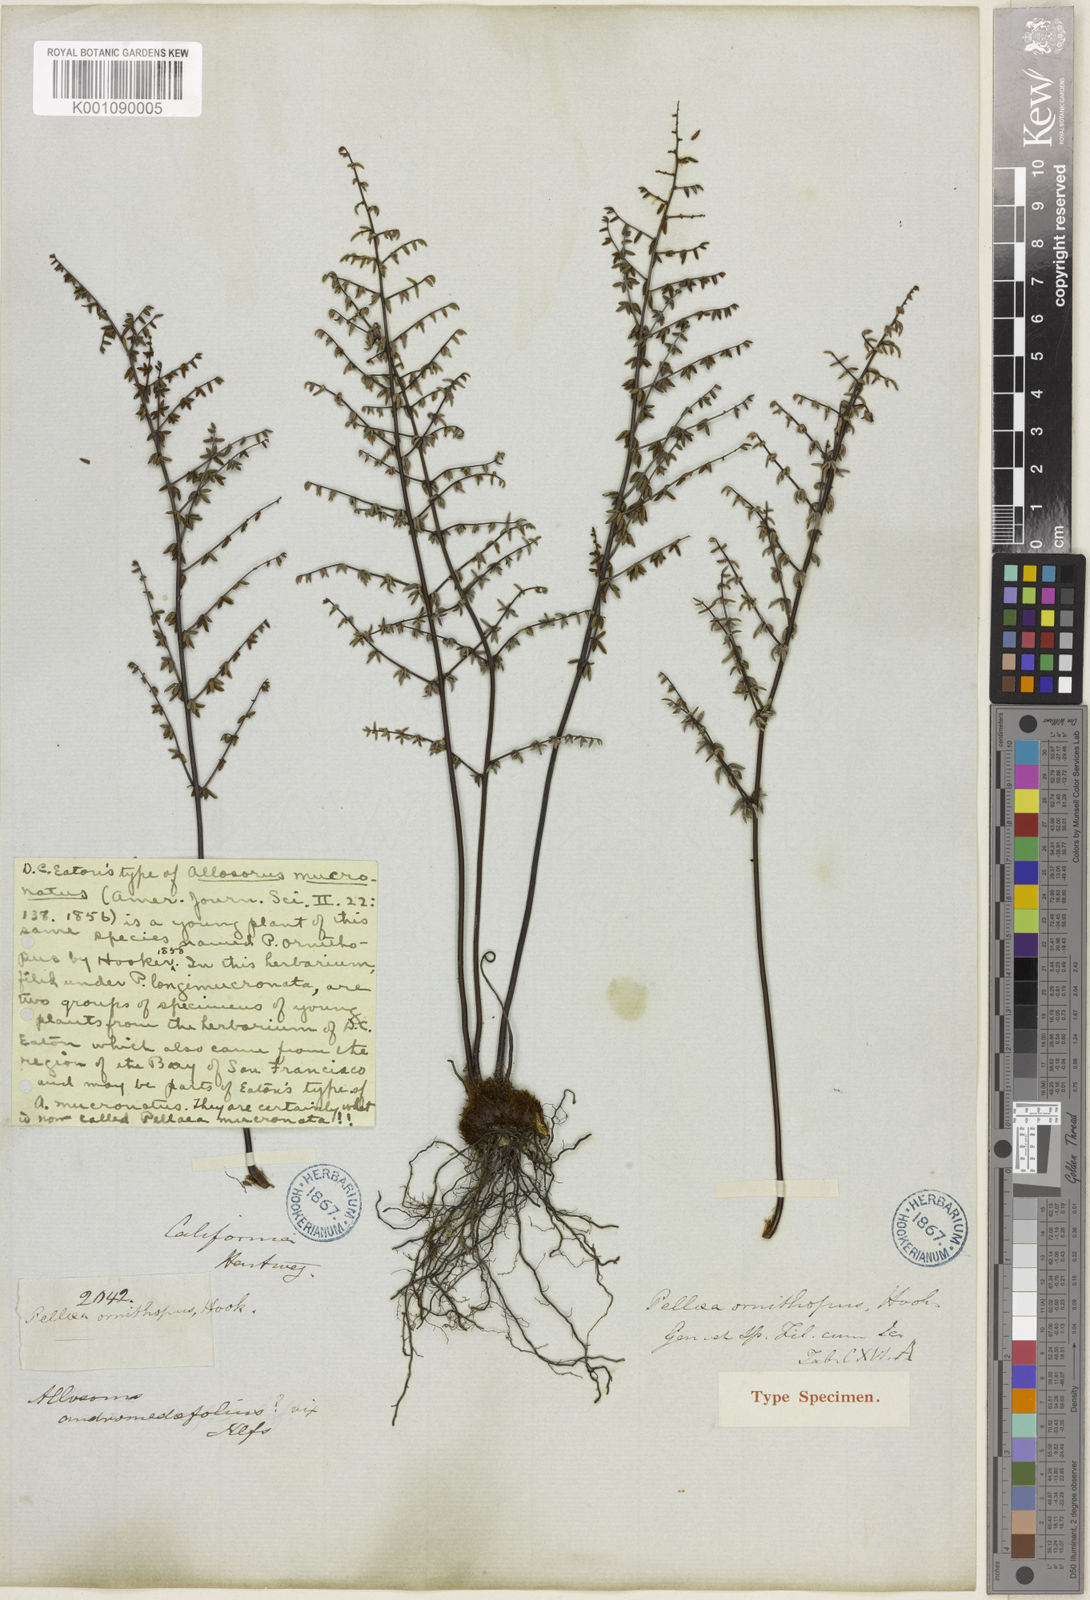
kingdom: Plantae
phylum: Tracheophyta
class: Polypodiopsida
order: Polypodiales
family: Pteridaceae
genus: Pellaea
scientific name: Pellaea mucronata
